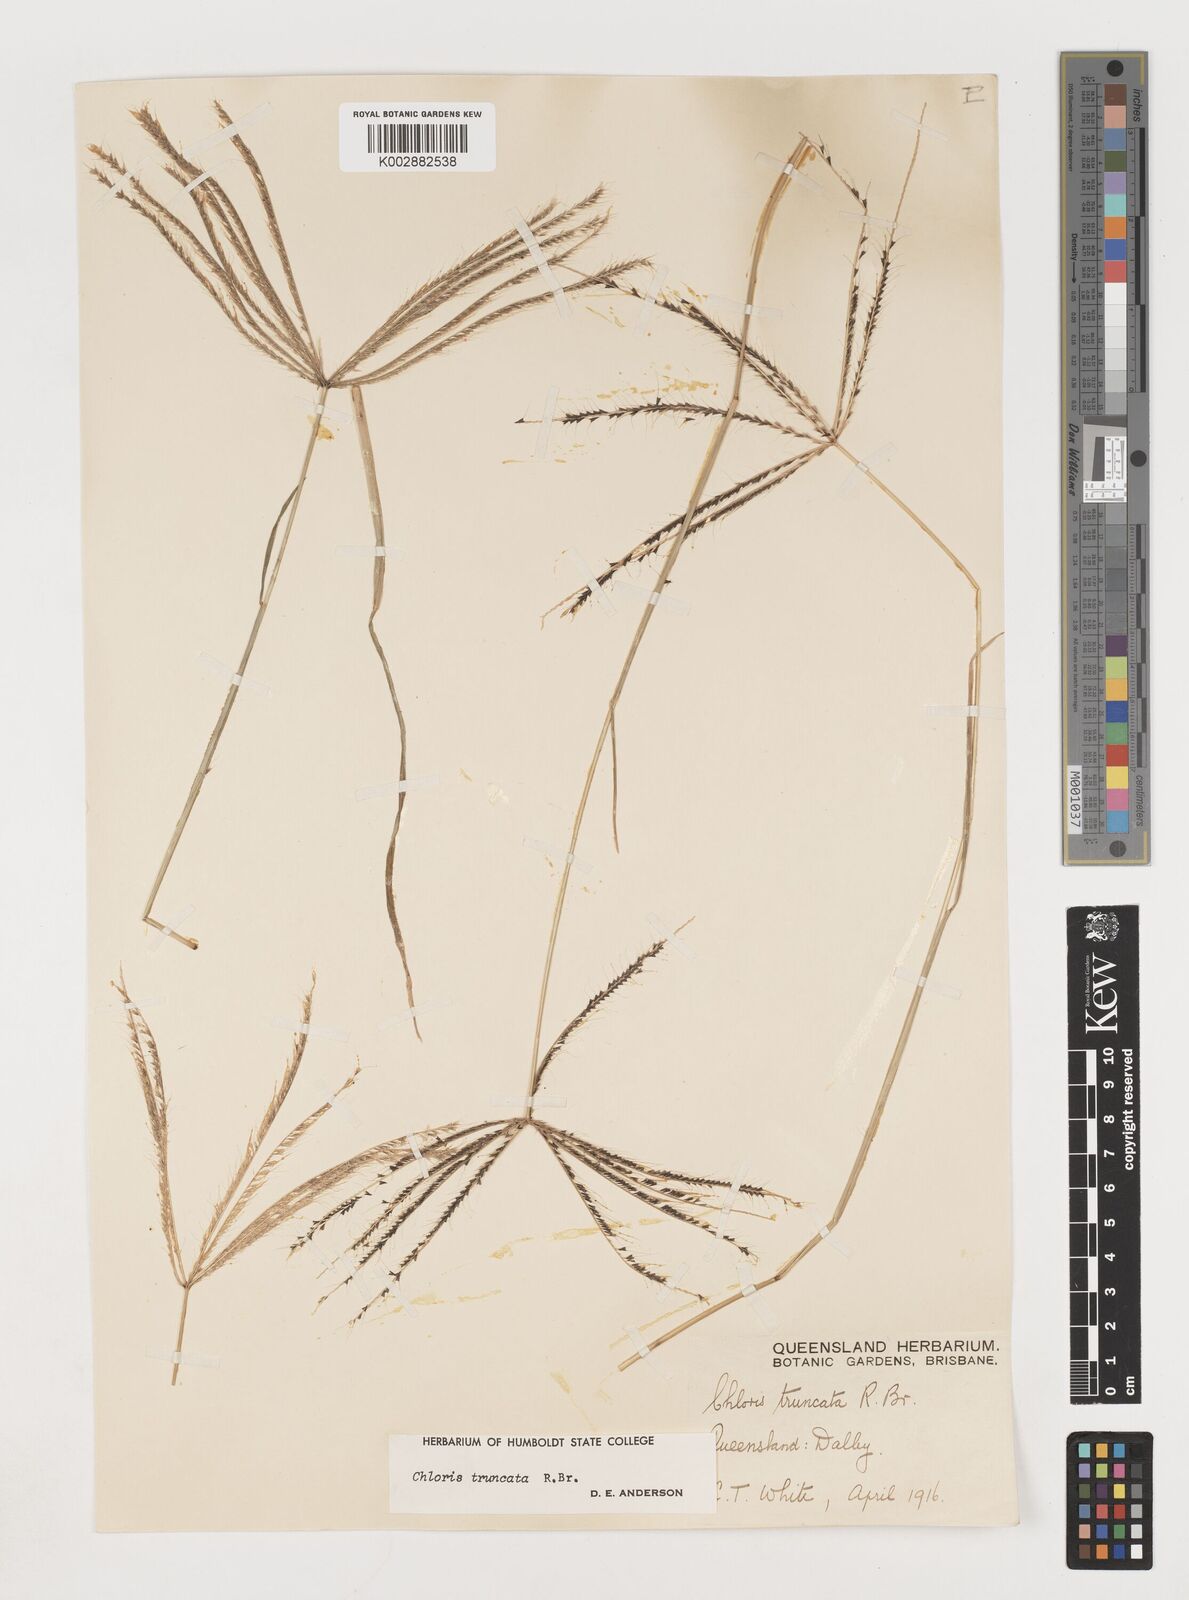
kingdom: Plantae
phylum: Tracheophyta
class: Liliopsida
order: Poales
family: Poaceae
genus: Chloris
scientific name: Chloris truncata
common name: Windmill-grass
